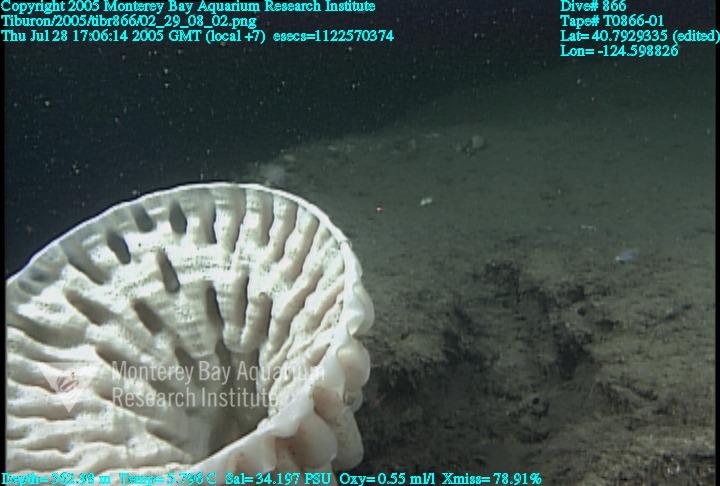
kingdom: Animalia
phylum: Porifera
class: Hexactinellida
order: Sceptrulophora
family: Aphrocallistidae
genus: Heterochone
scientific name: Heterochone calyx
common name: Fingered goblet glass sponge
